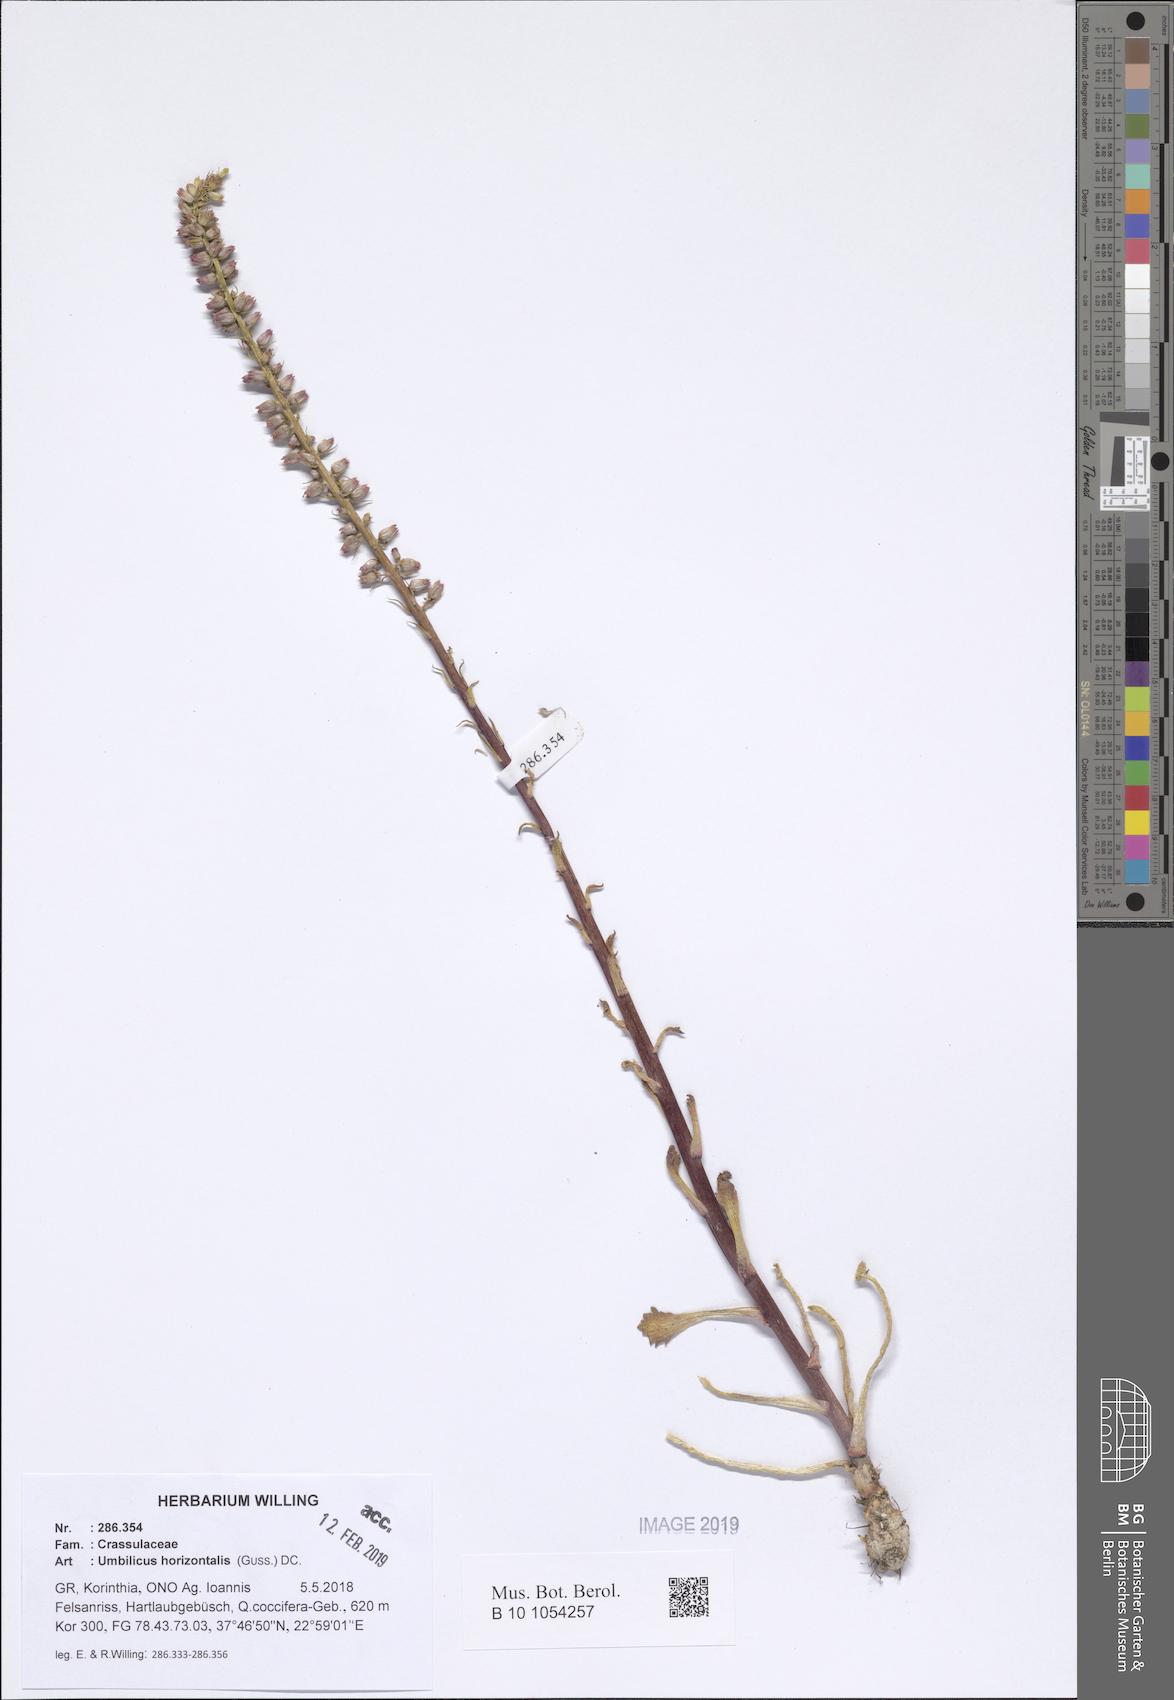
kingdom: Plantae
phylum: Tracheophyta
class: Magnoliopsida
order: Saxifragales
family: Crassulaceae
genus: Umbilicus
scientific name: Umbilicus horizontalis
